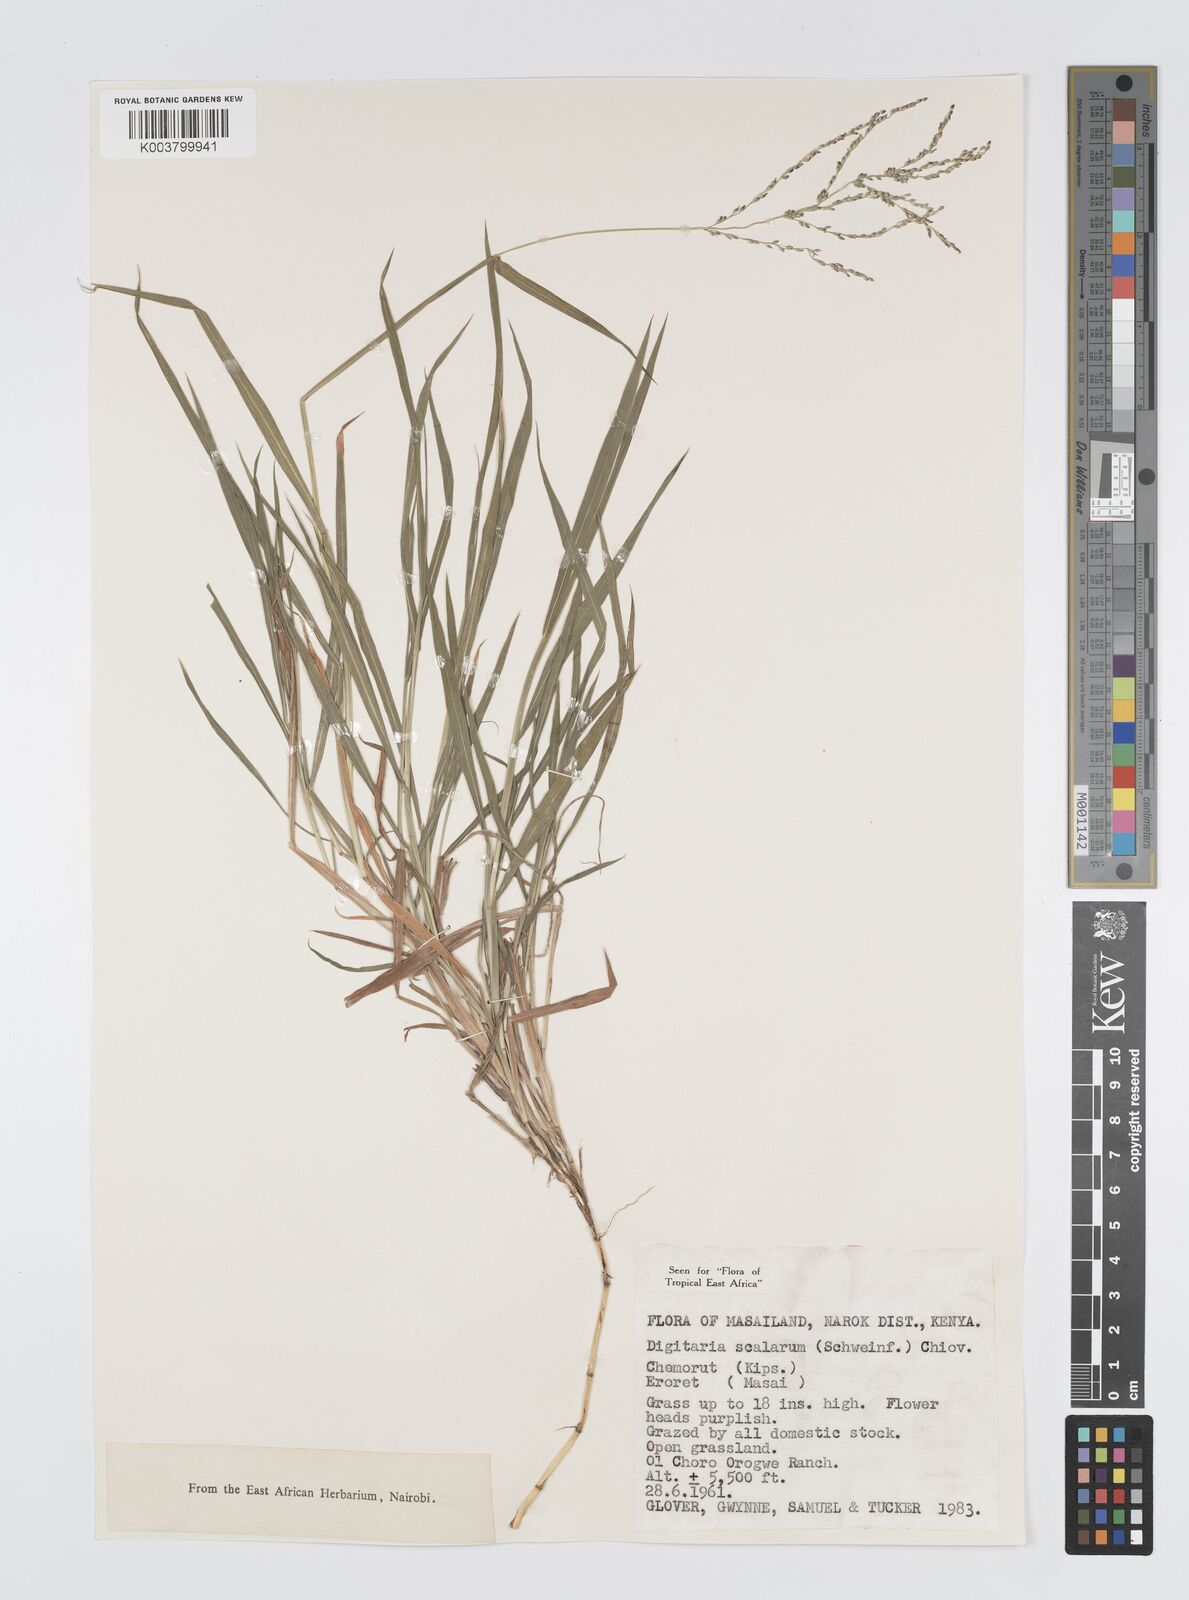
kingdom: Plantae
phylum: Tracheophyta
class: Liliopsida
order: Poales
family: Poaceae
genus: Digitaria
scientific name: Digitaria abyssinica
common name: African couchgrass
